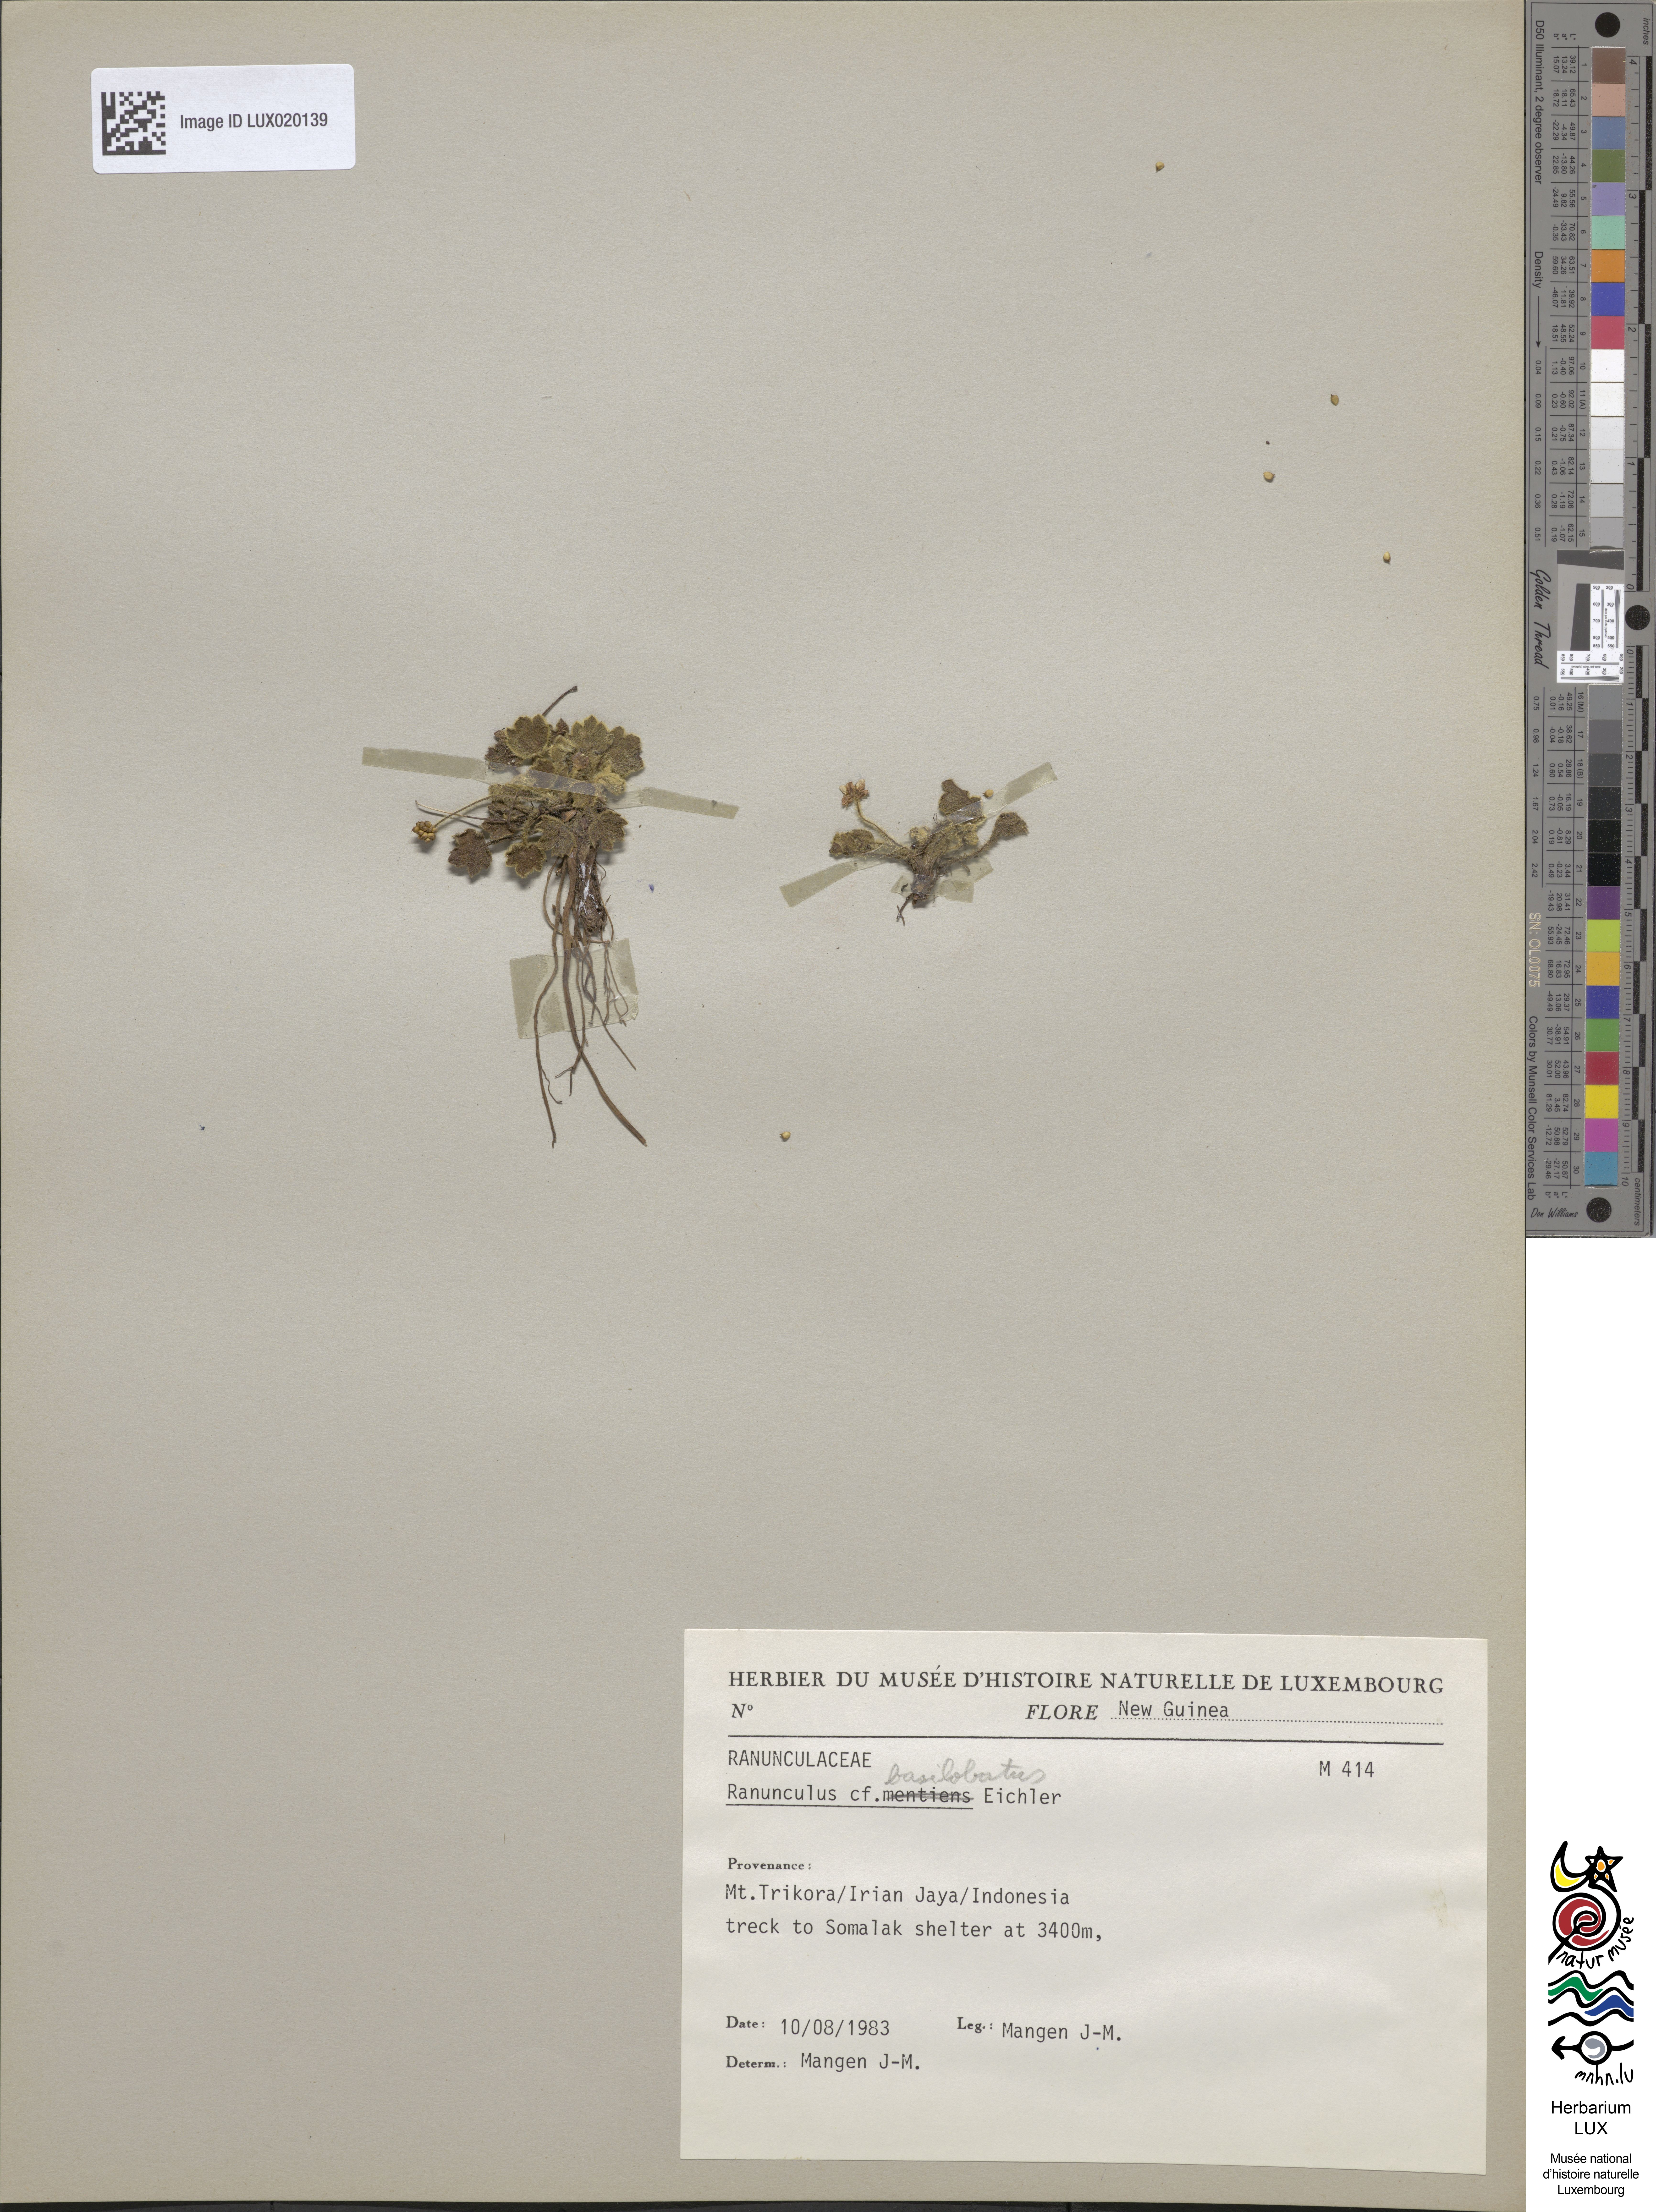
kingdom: Plantae
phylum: Tracheophyta
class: Magnoliopsida
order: Ranunculales
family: Ranunculaceae
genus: Ranunculus
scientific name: Ranunculus basilobatus
